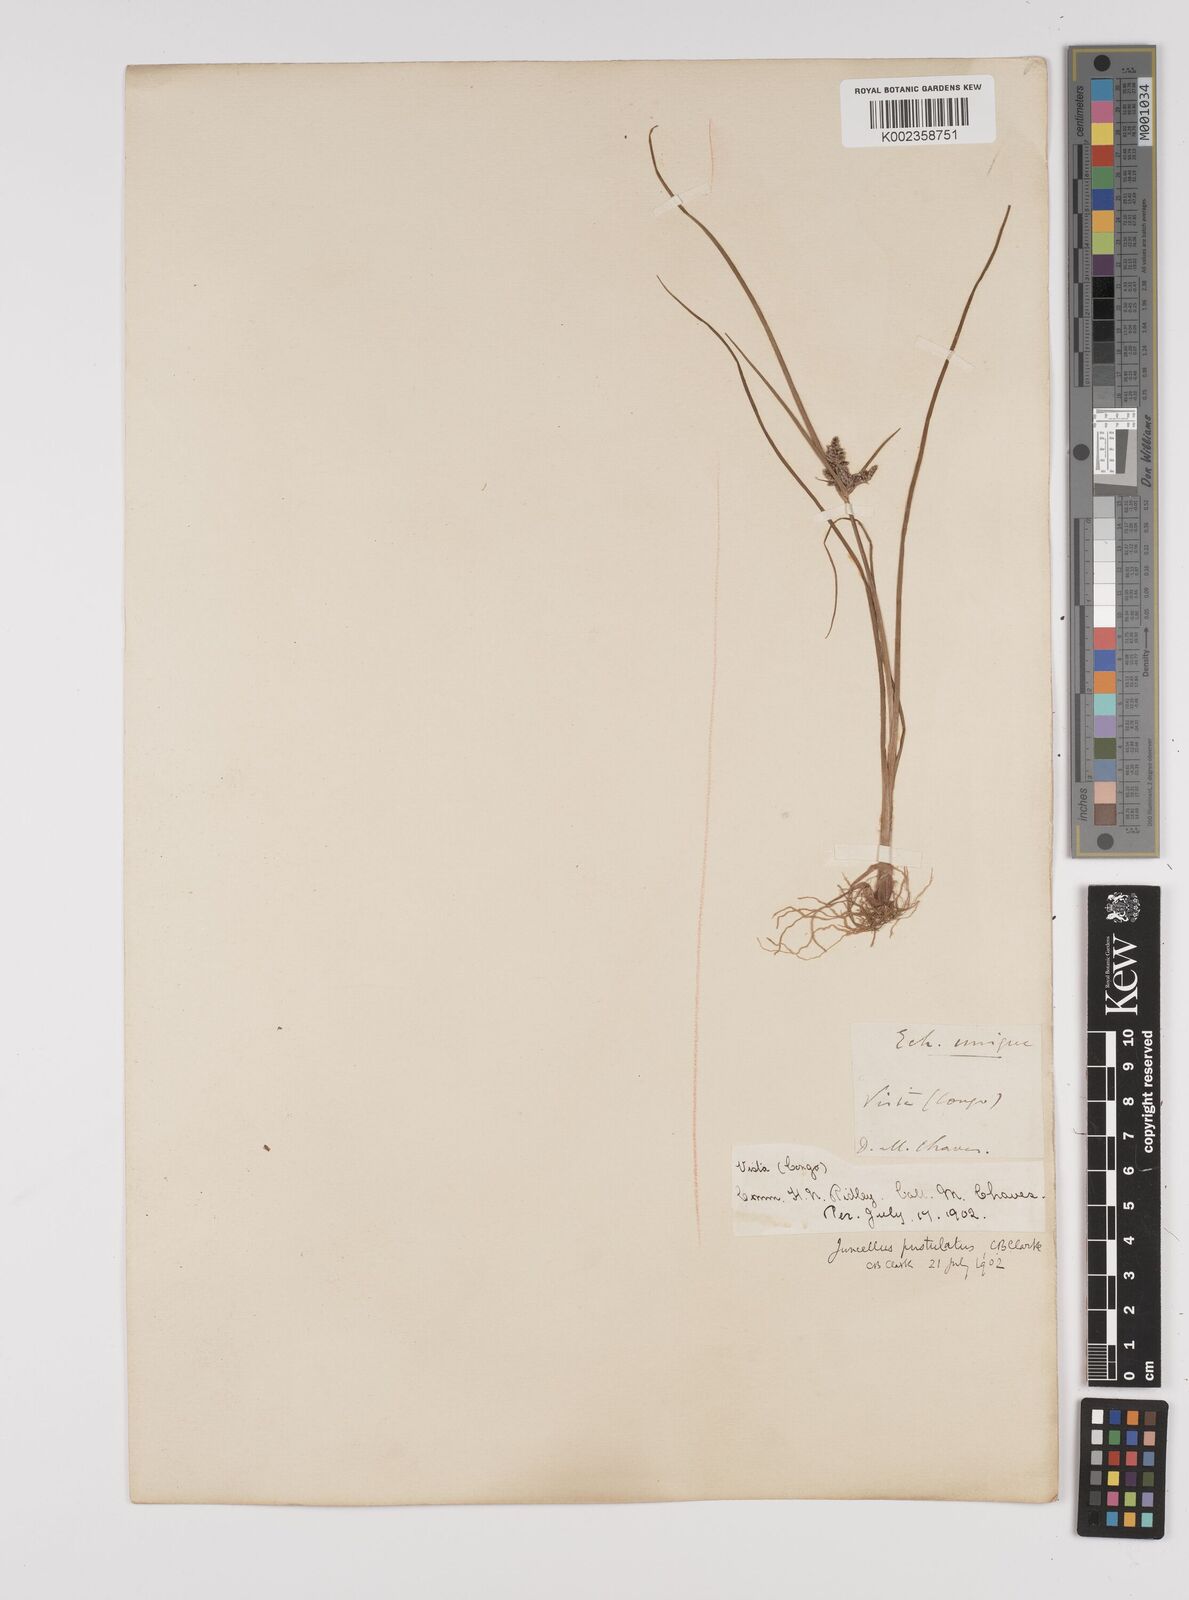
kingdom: Plantae
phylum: Tracheophyta
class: Liliopsida
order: Poales
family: Cyperaceae
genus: Cyperus
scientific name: Cyperus pustulatus
